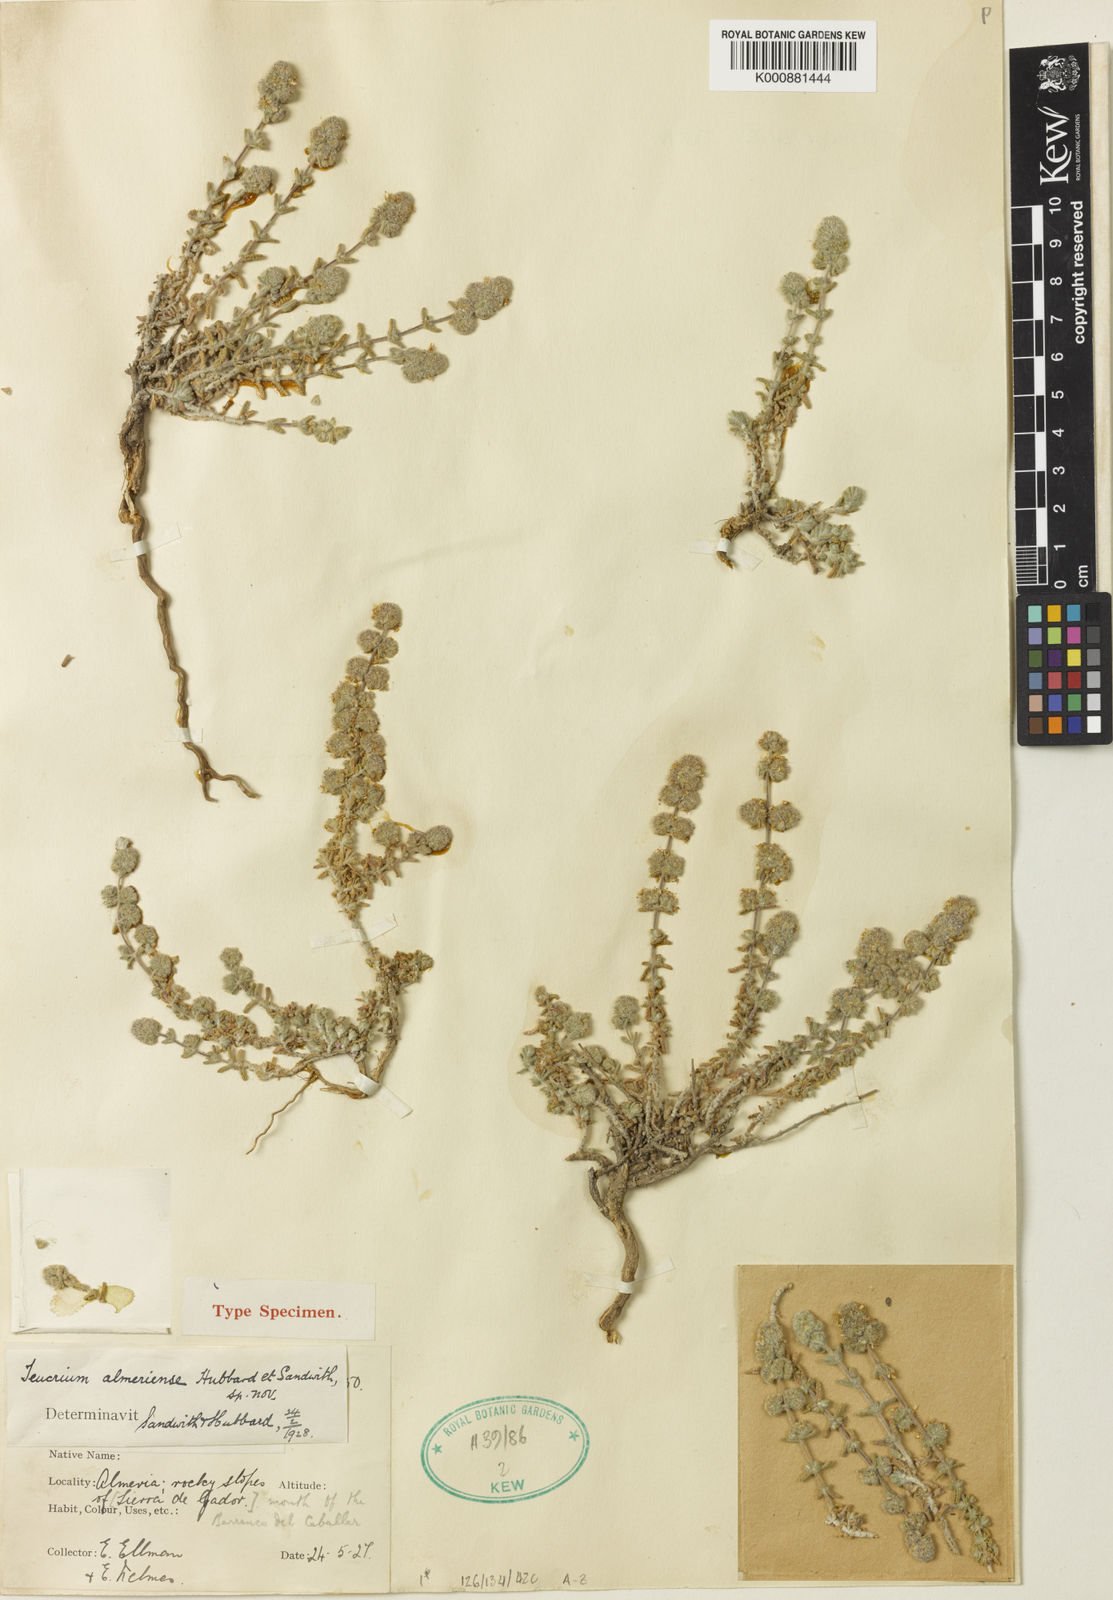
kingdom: Plantae
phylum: Tracheophyta
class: Magnoliopsida
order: Lamiales
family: Lamiaceae
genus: Teucrium
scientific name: Teucrium eriocephalum
